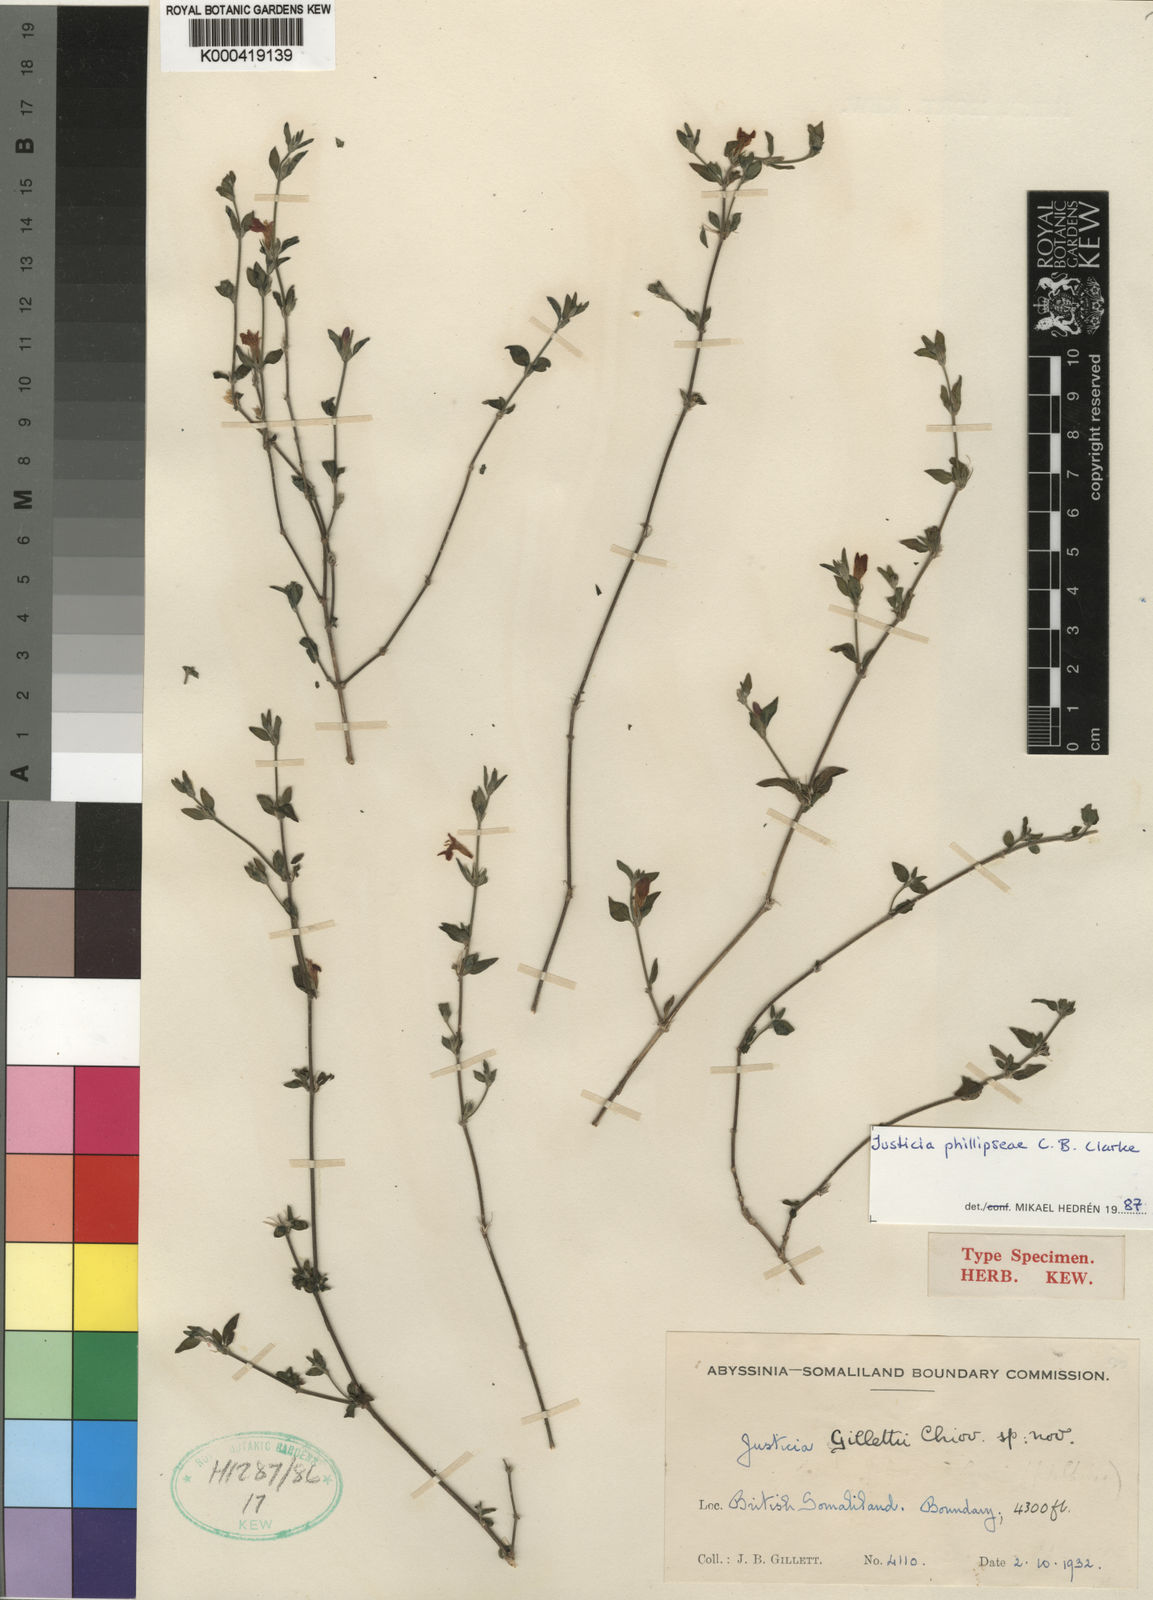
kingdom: Plantae
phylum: Tracheophyta
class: Magnoliopsida
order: Lamiales
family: Acanthaceae
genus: Justicia
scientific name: Justicia
